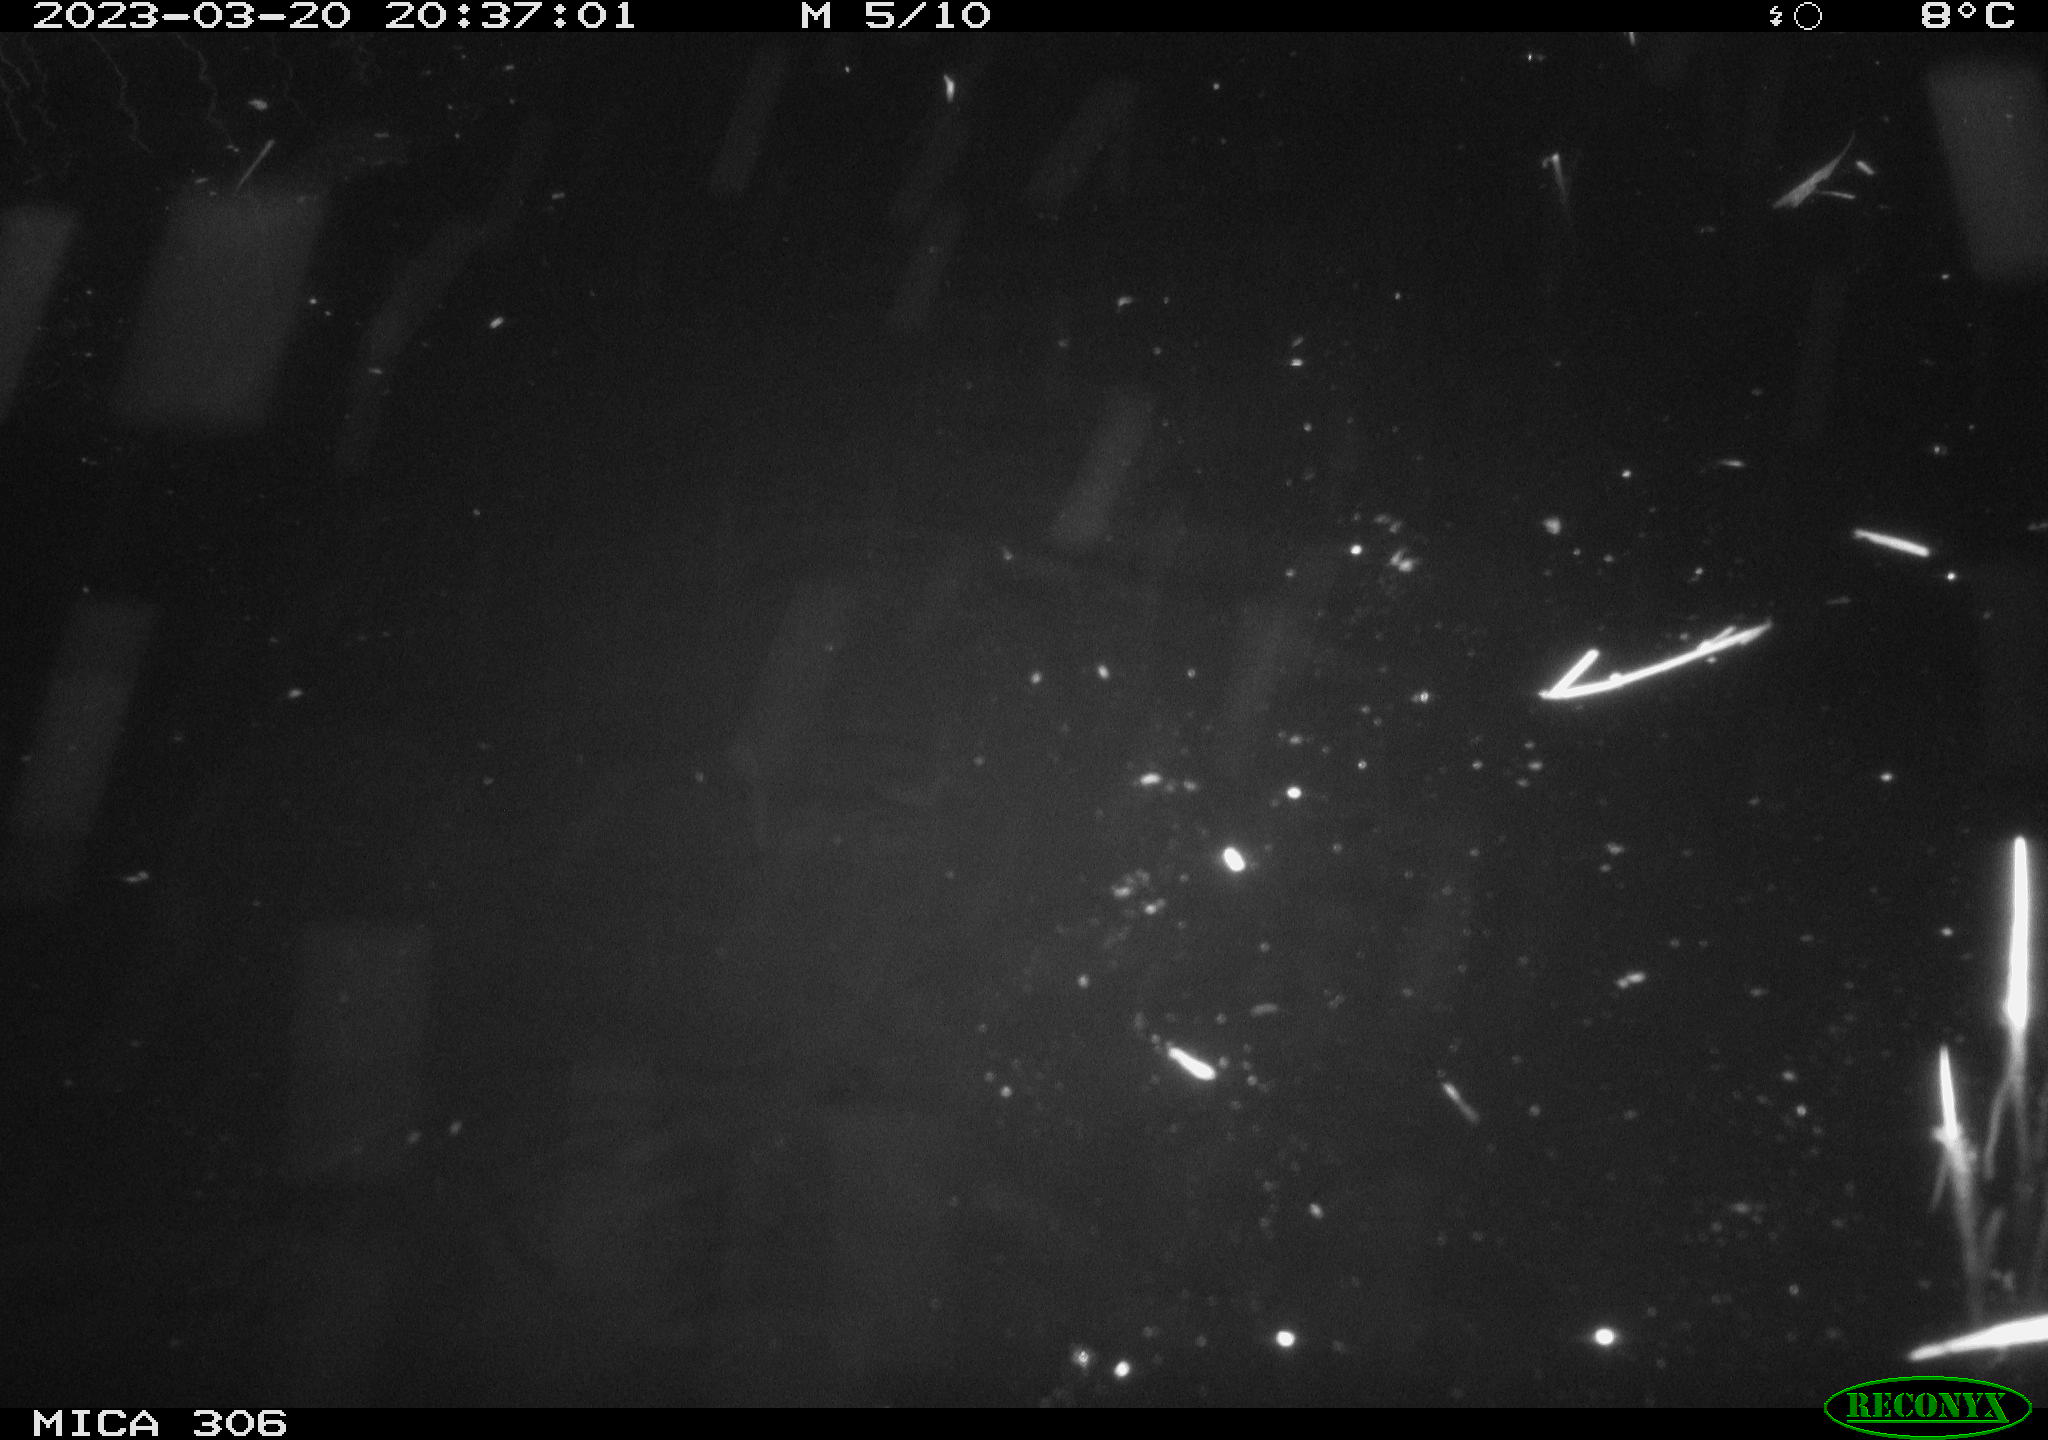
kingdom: Animalia
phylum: Chordata
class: Mammalia
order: Rodentia
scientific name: Rodentia
